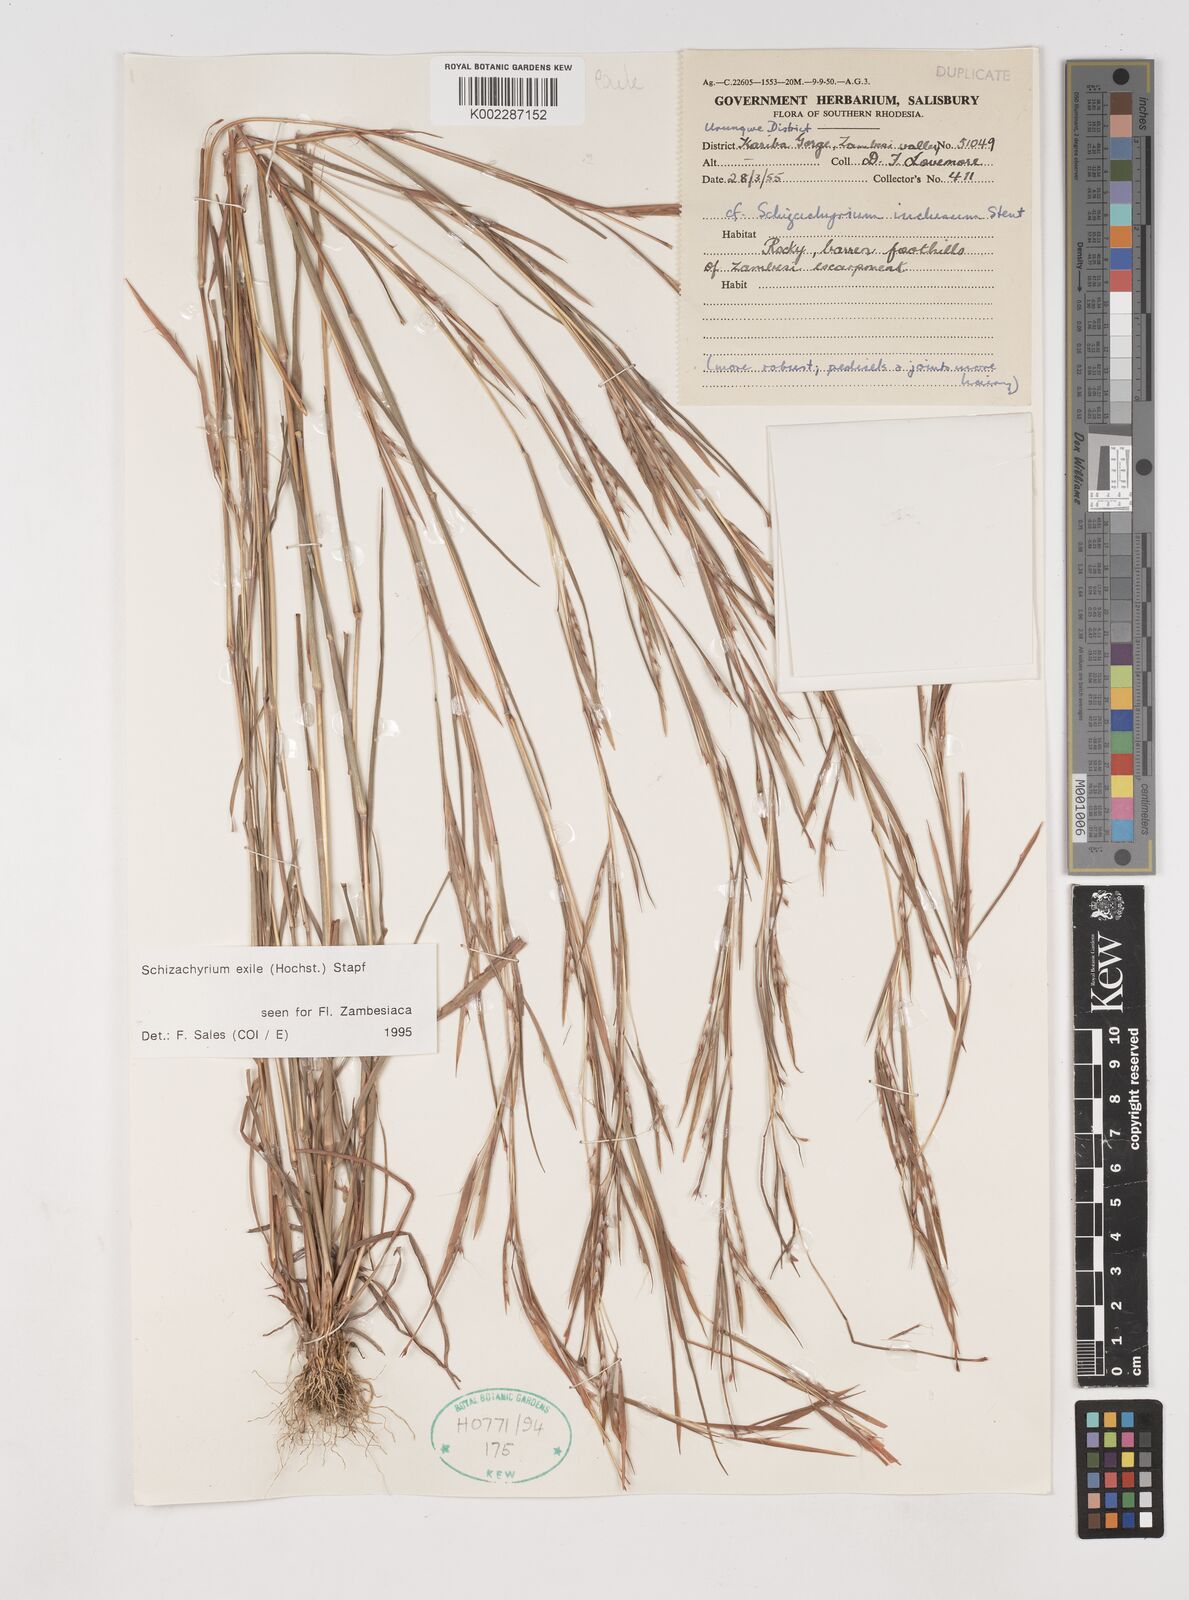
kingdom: Plantae
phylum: Tracheophyta
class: Liliopsida
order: Poales
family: Poaceae
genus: Schizachyrium
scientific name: Schizachyrium exile
